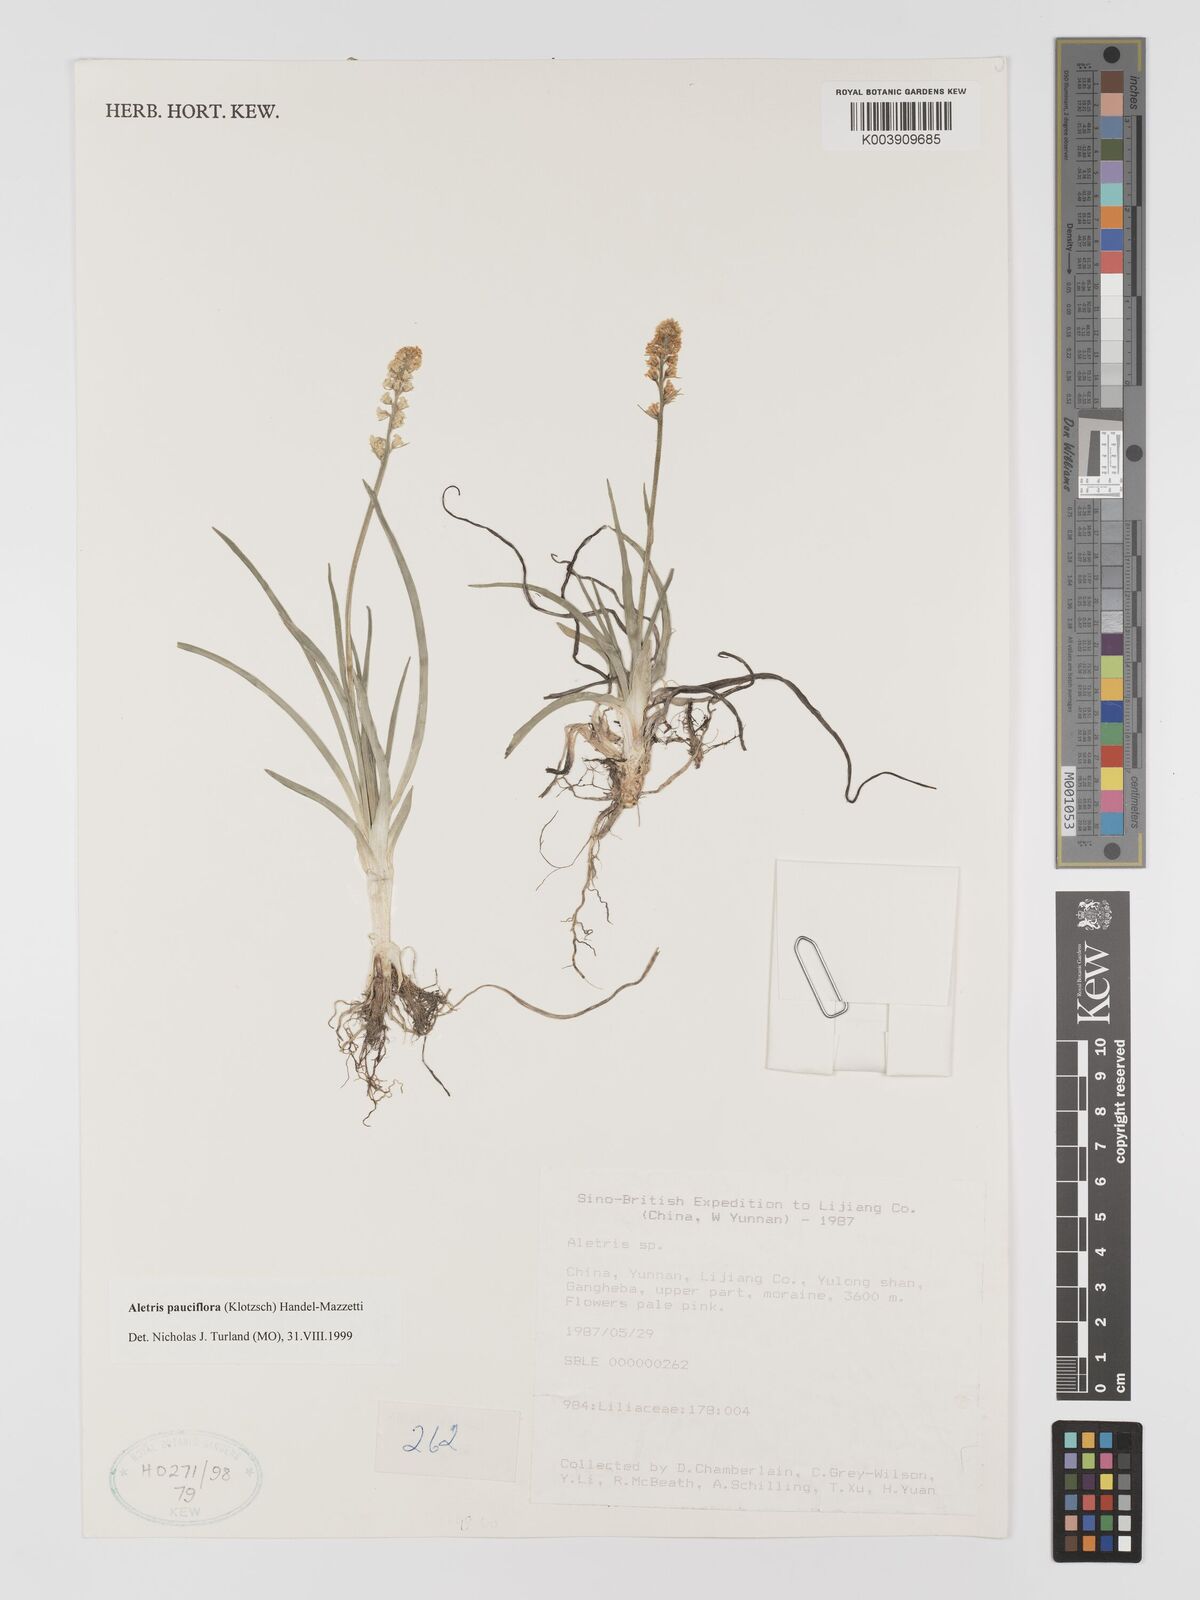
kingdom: Plantae
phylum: Tracheophyta
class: Liliopsida
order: Dioscoreales
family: Nartheciaceae
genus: Aletris
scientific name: Aletris pauciflora
